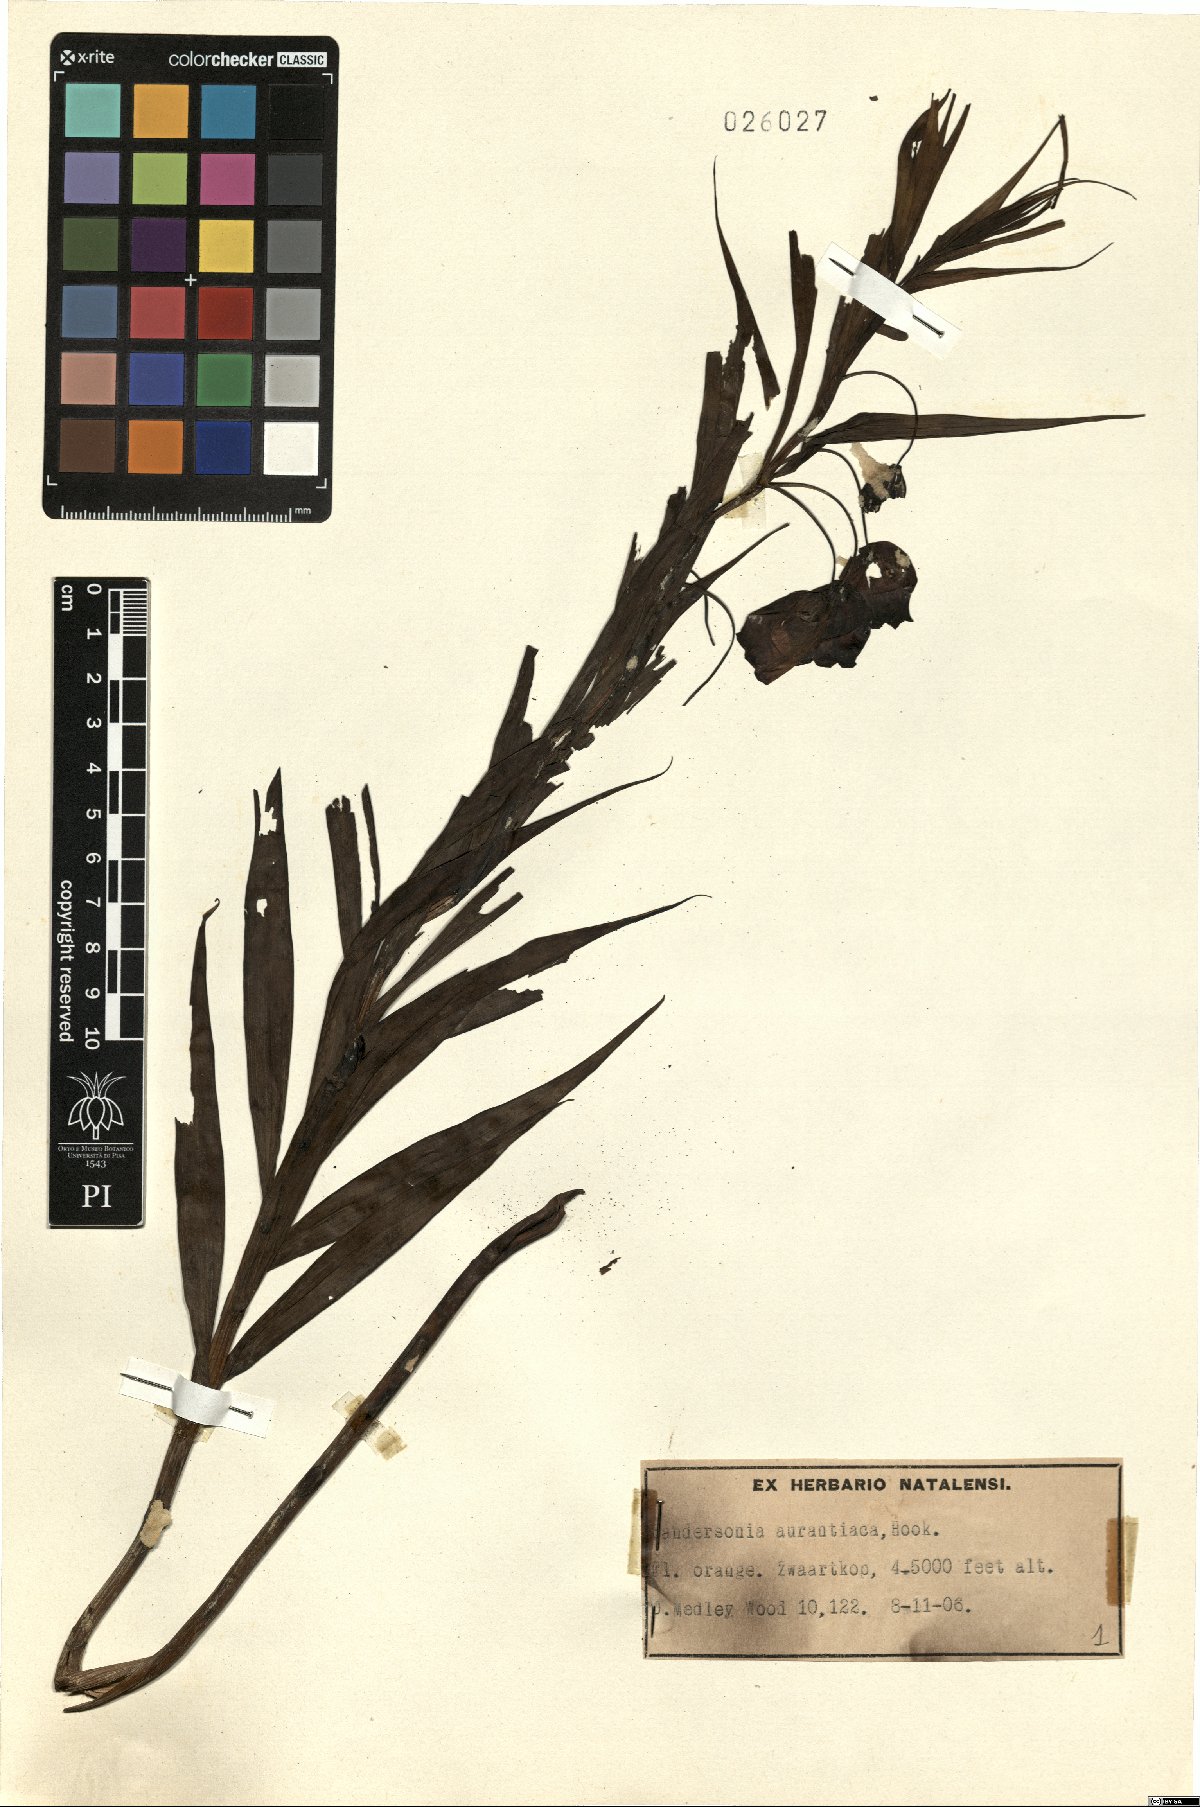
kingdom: Plantae
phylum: Tracheophyta
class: Liliopsida
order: Liliales
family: Colchicaceae
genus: Sandersonia
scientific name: Sandersonia aurantiaca
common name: Chinese-lantern-lily
